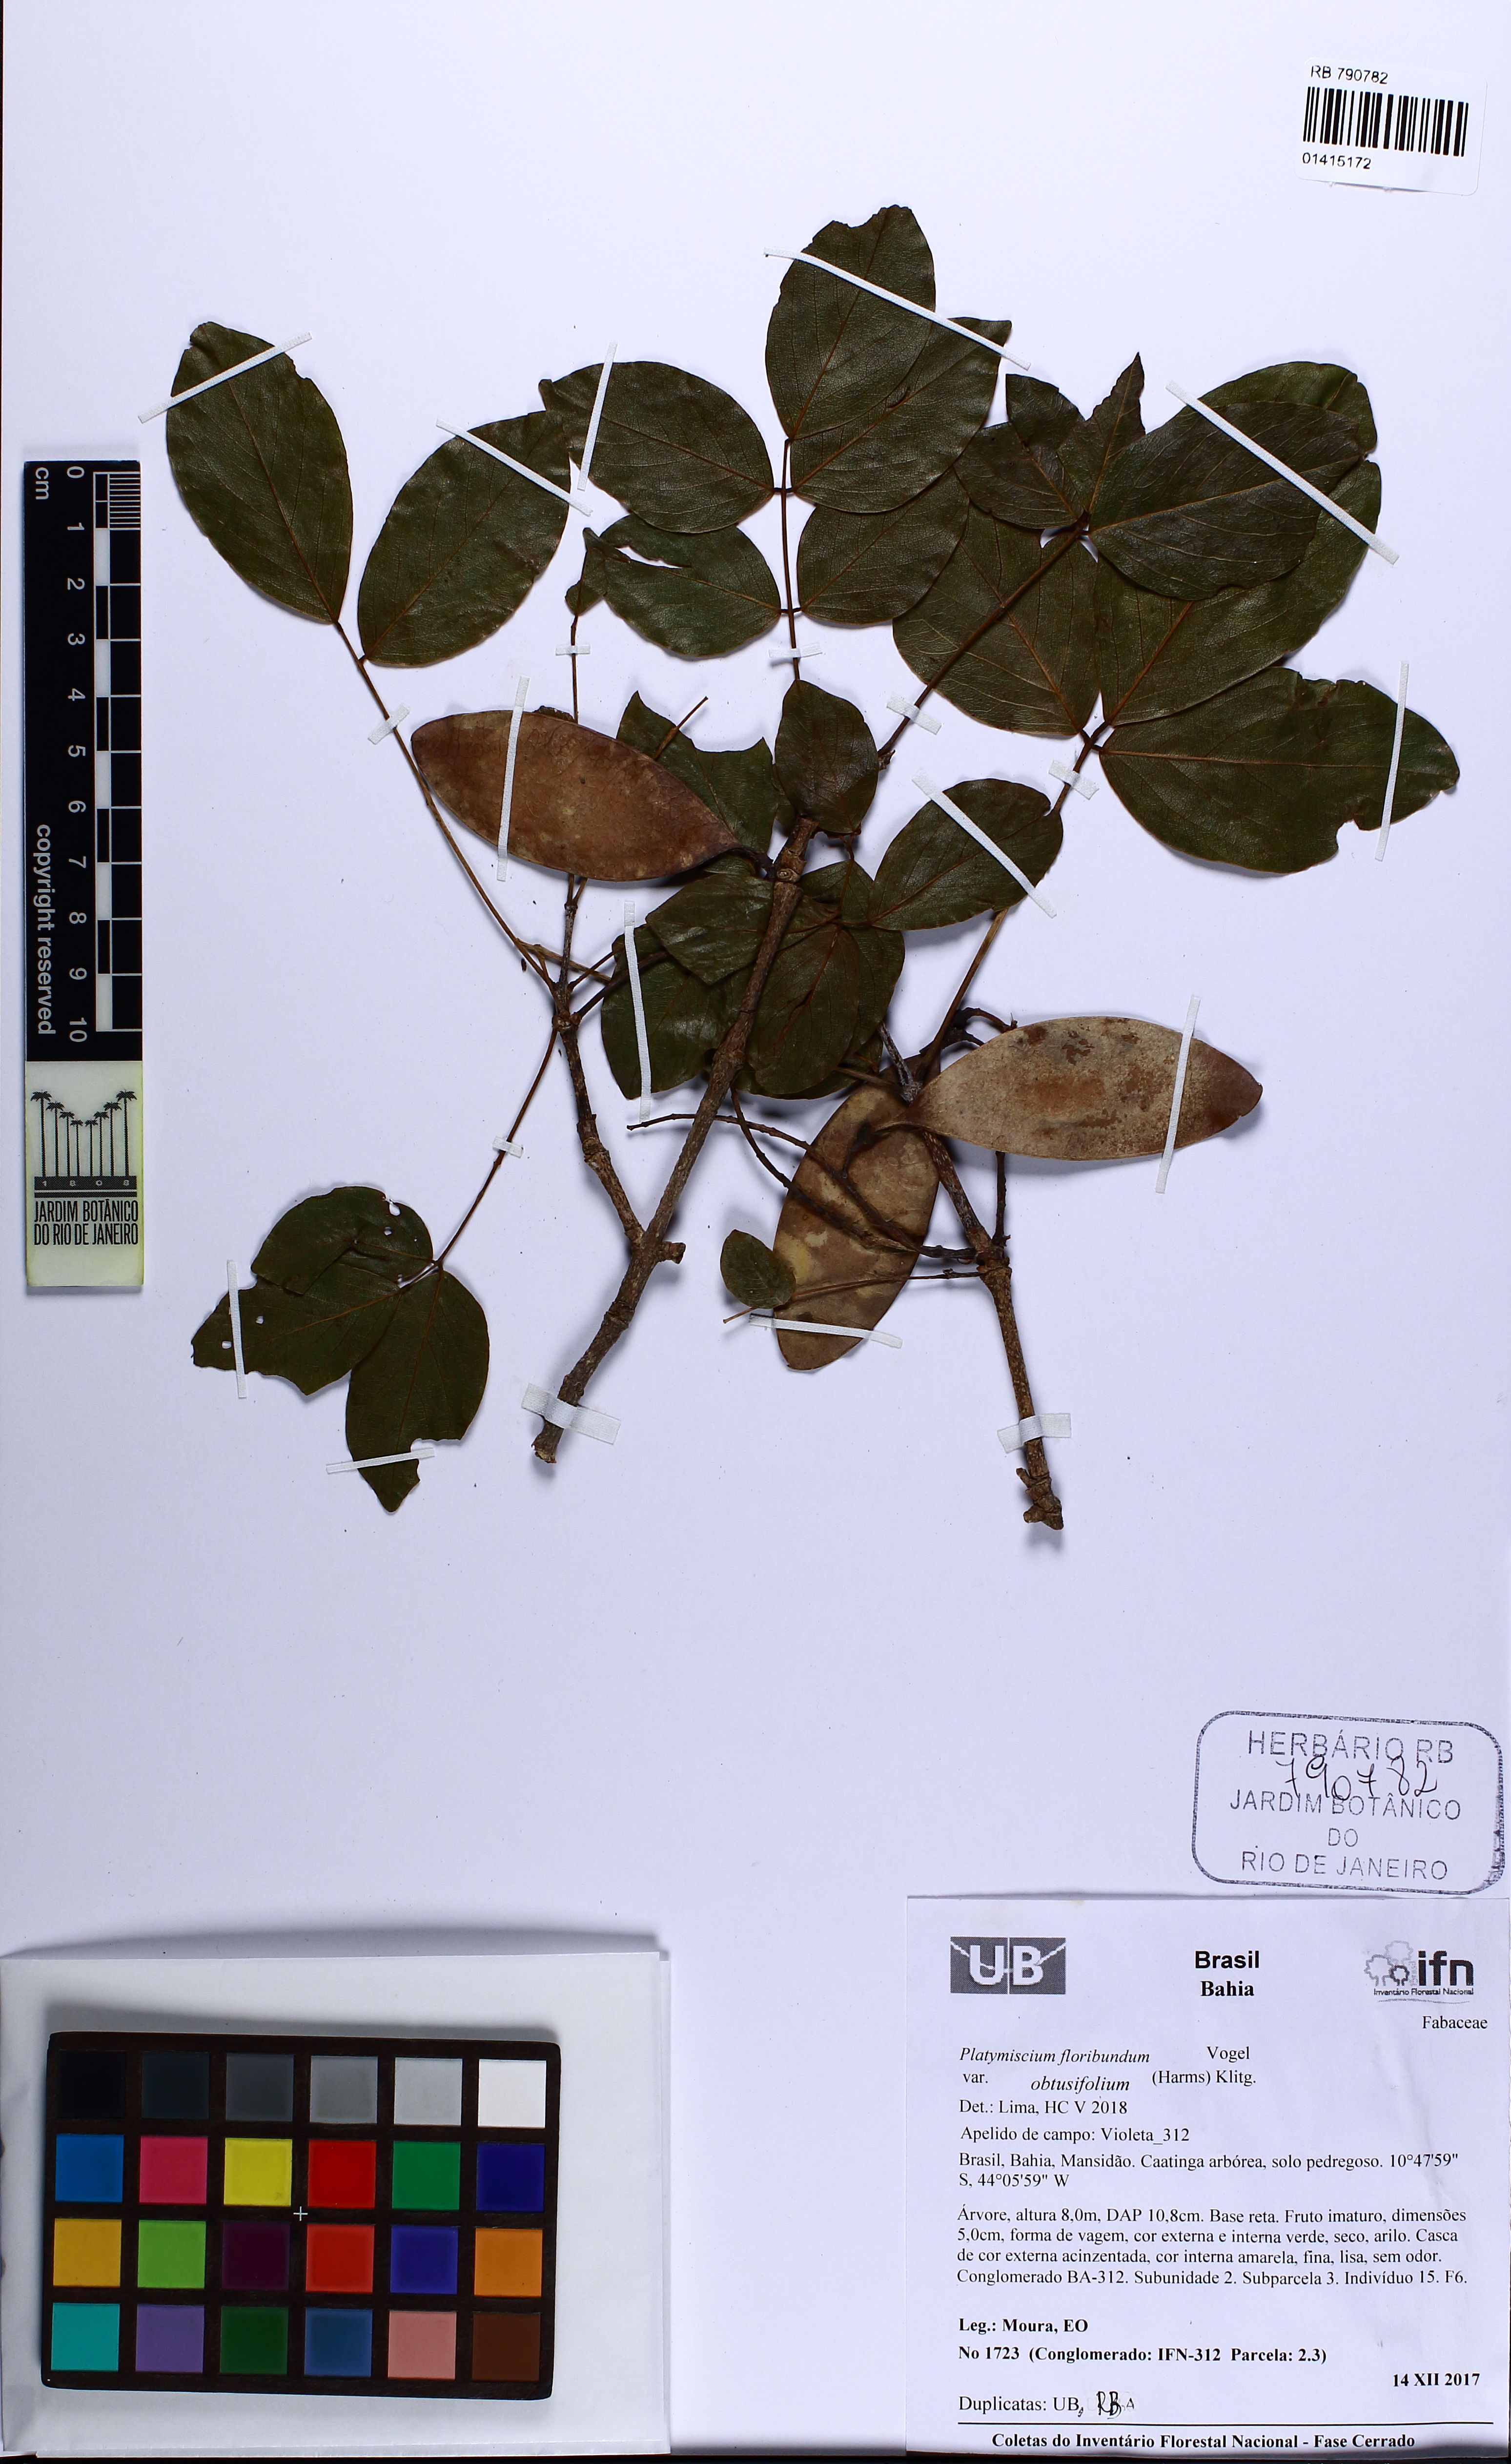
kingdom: Plantae
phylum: Tracheophyta
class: Magnoliopsida
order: Fabales
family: Fabaceae
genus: Platymiscium
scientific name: Platymiscium floribundum
